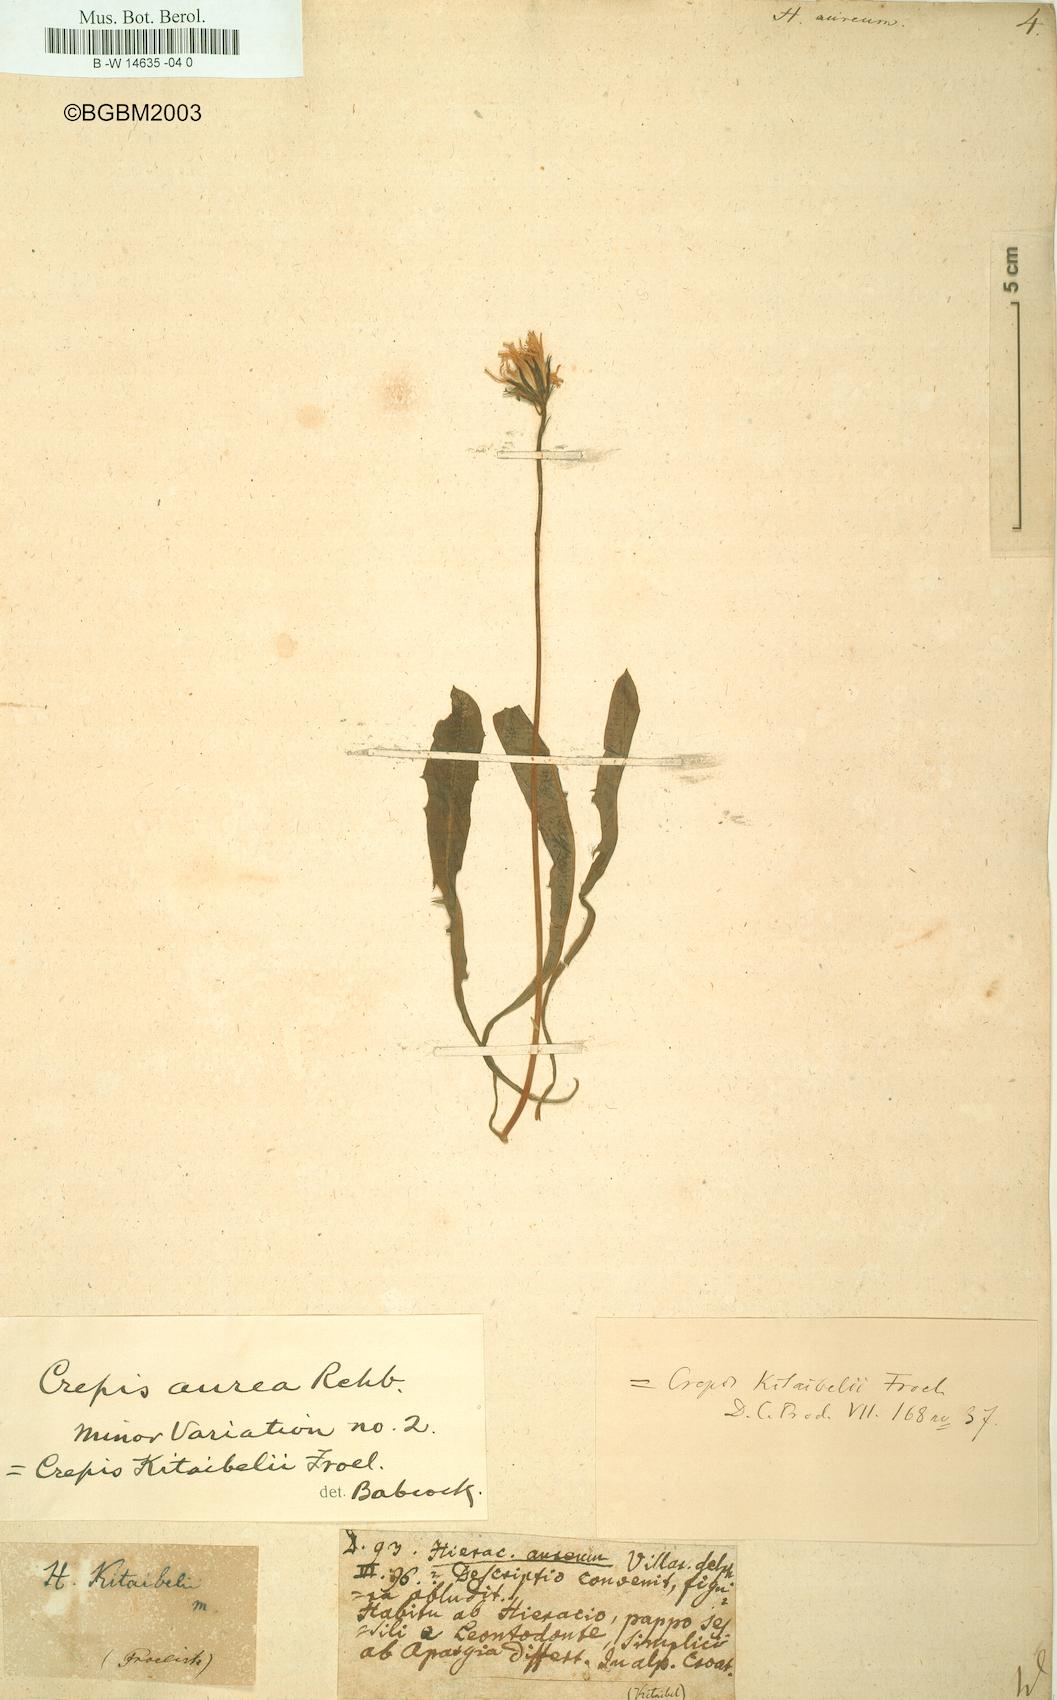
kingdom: Plantae
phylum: Tracheophyta
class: Magnoliopsida
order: Asterales
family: Asteraceae
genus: Hieracium
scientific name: Hieracium aureum
